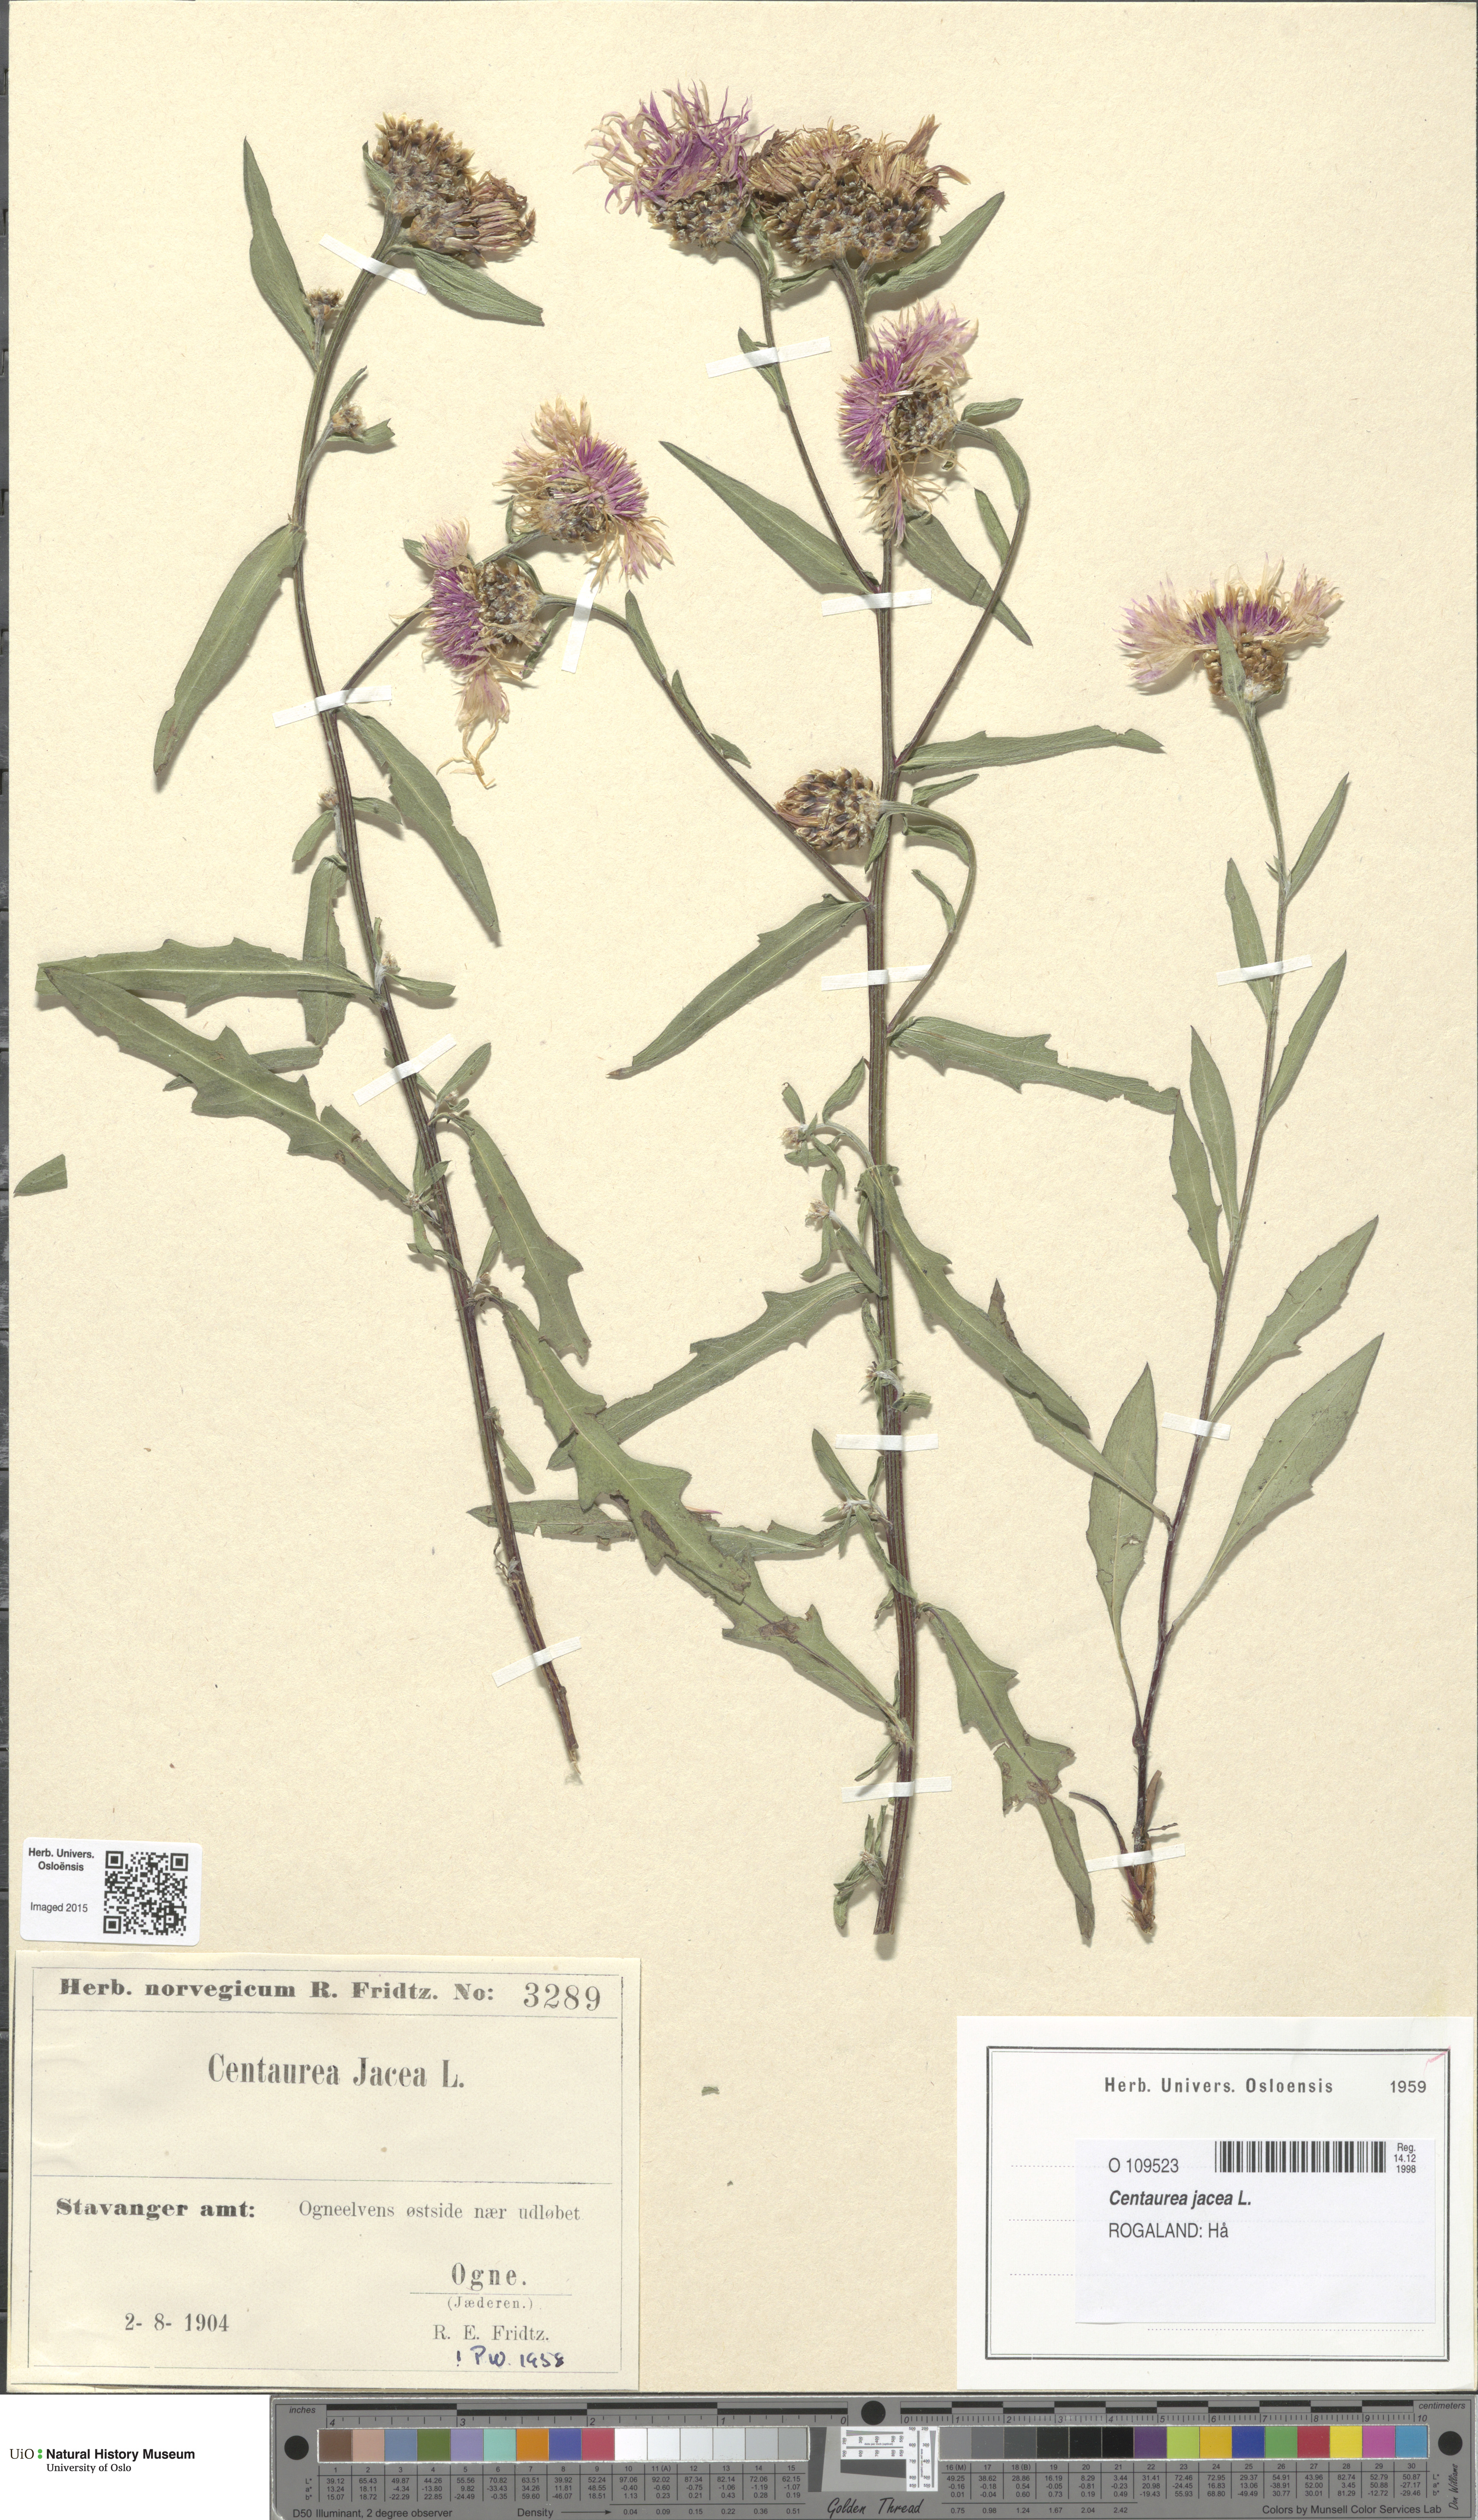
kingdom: Plantae
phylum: Tracheophyta
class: Magnoliopsida
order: Asterales
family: Asteraceae
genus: Centaurea
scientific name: Centaurea jacea
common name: Brown knapweed
